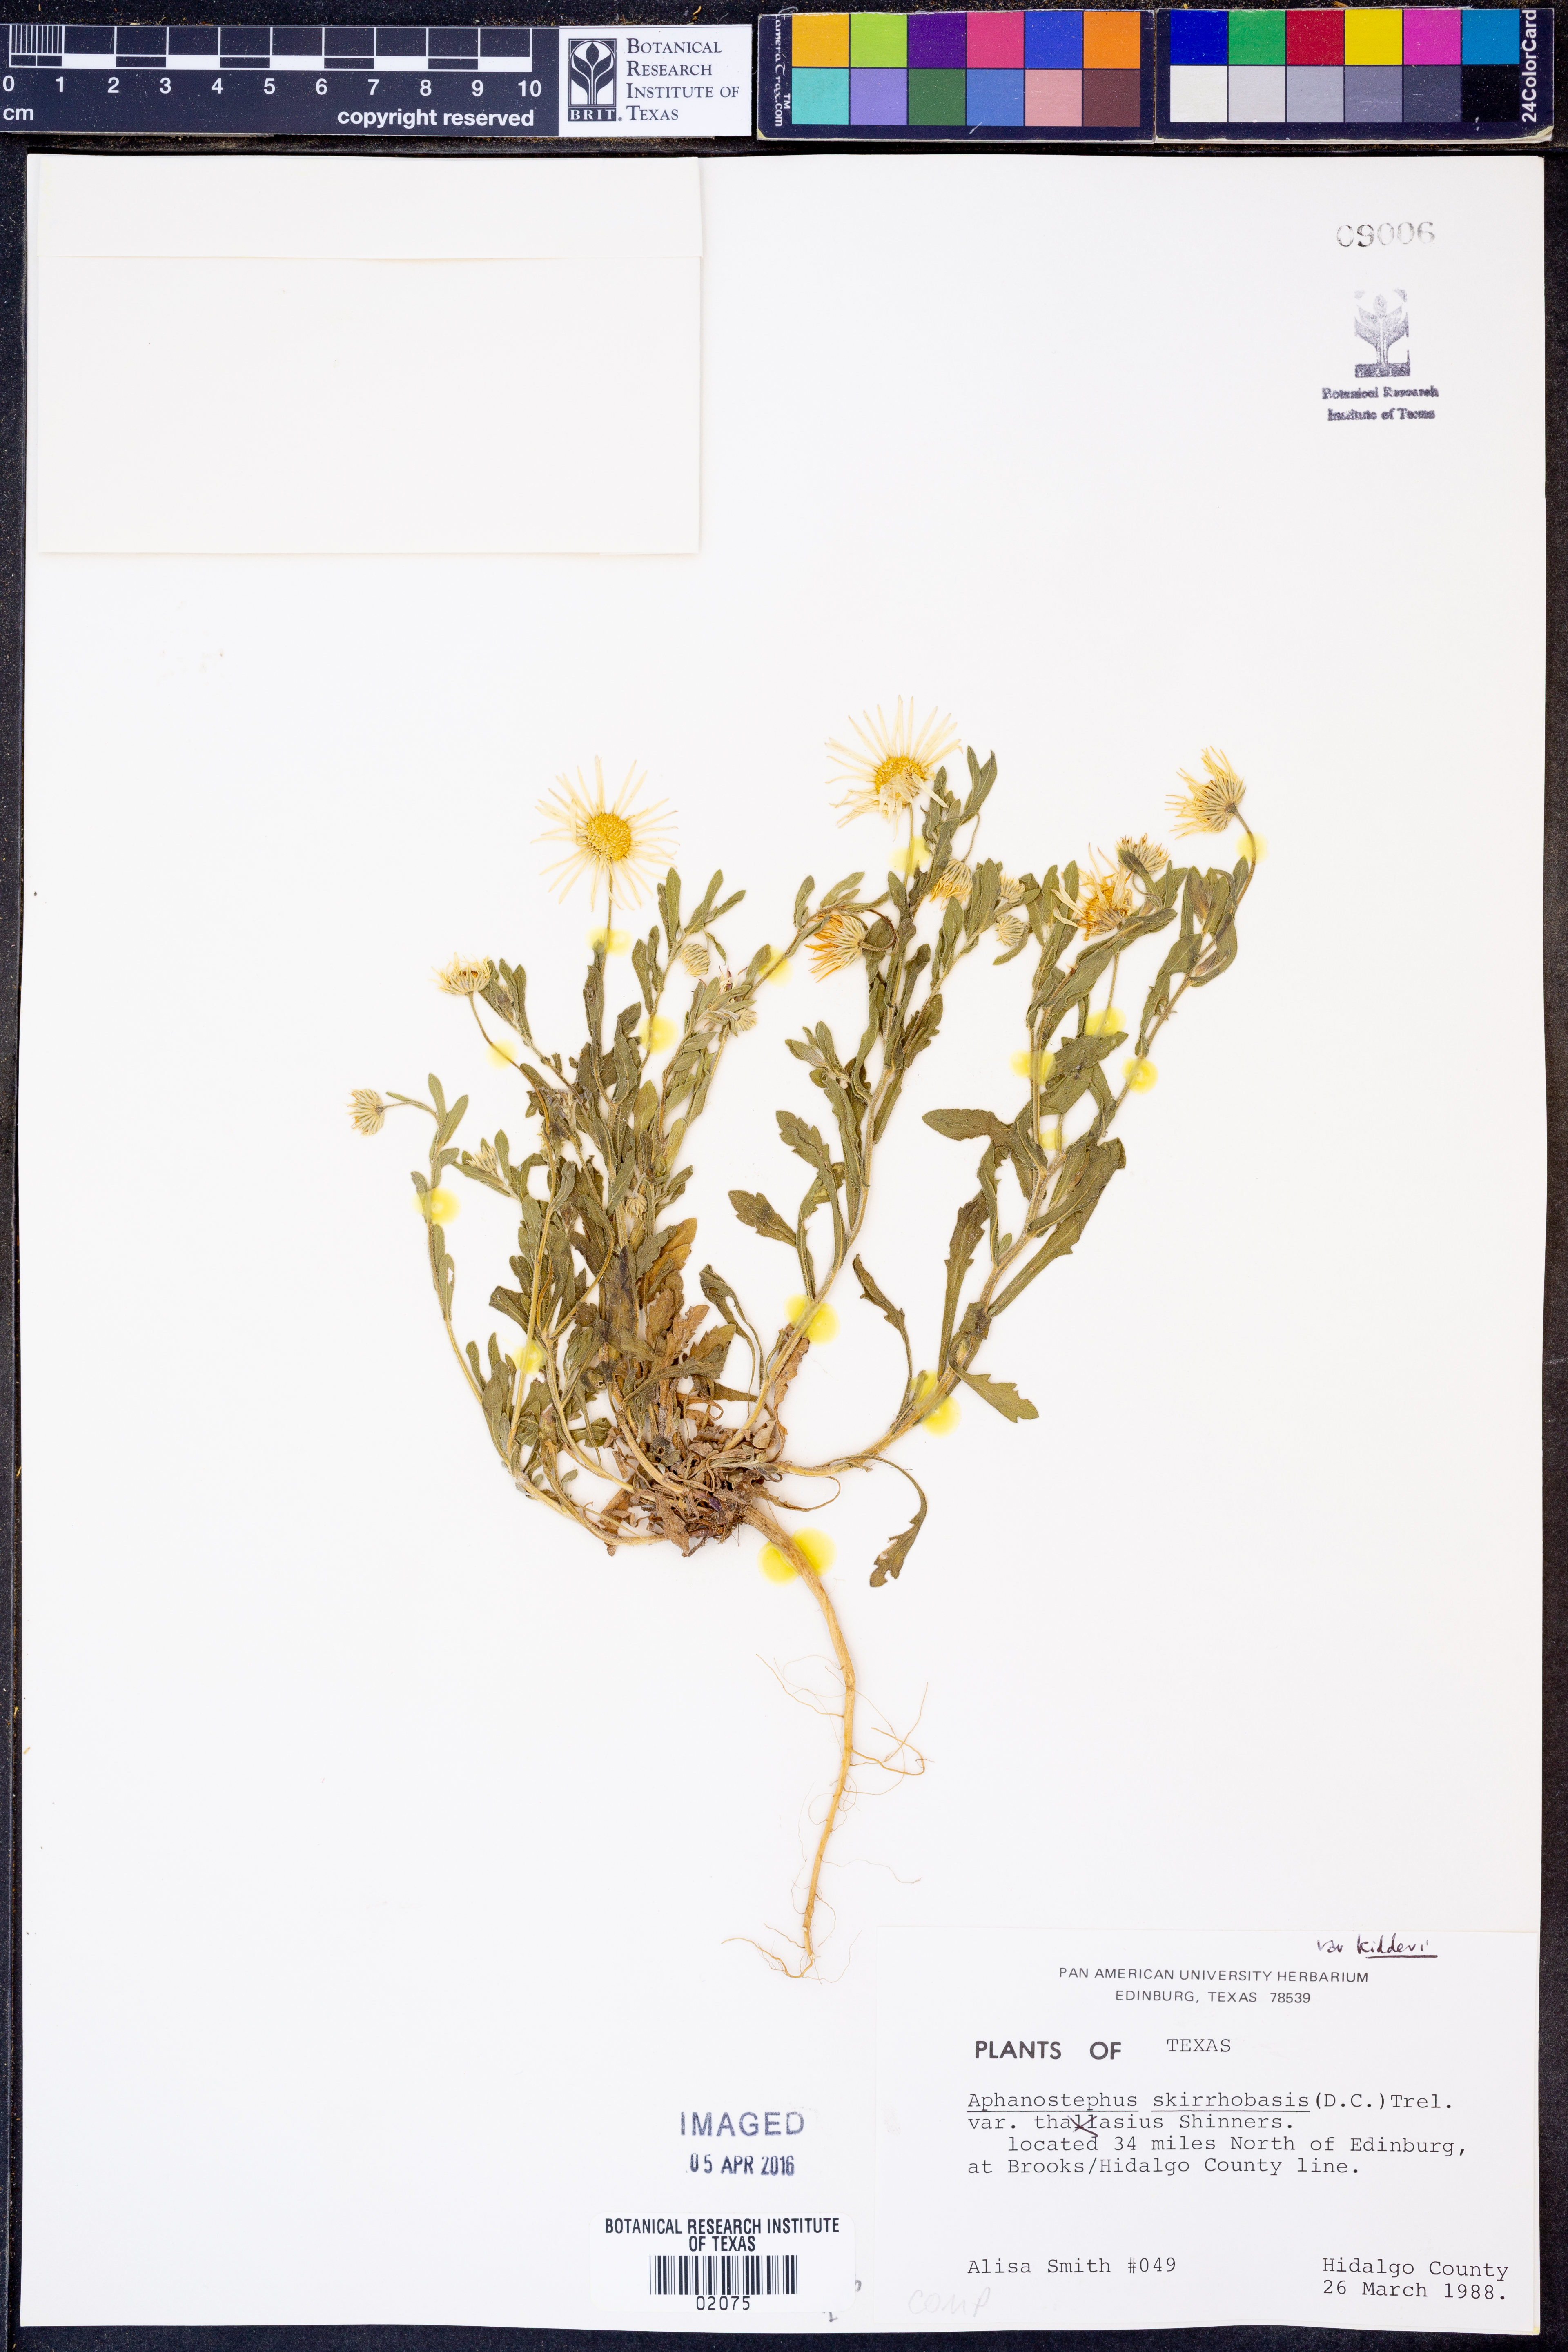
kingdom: Plantae
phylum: Tracheophyta
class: Magnoliopsida
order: Asterales
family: Asteraceae
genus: Aphanostephus
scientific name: Aphanostephus skirrhobasis
